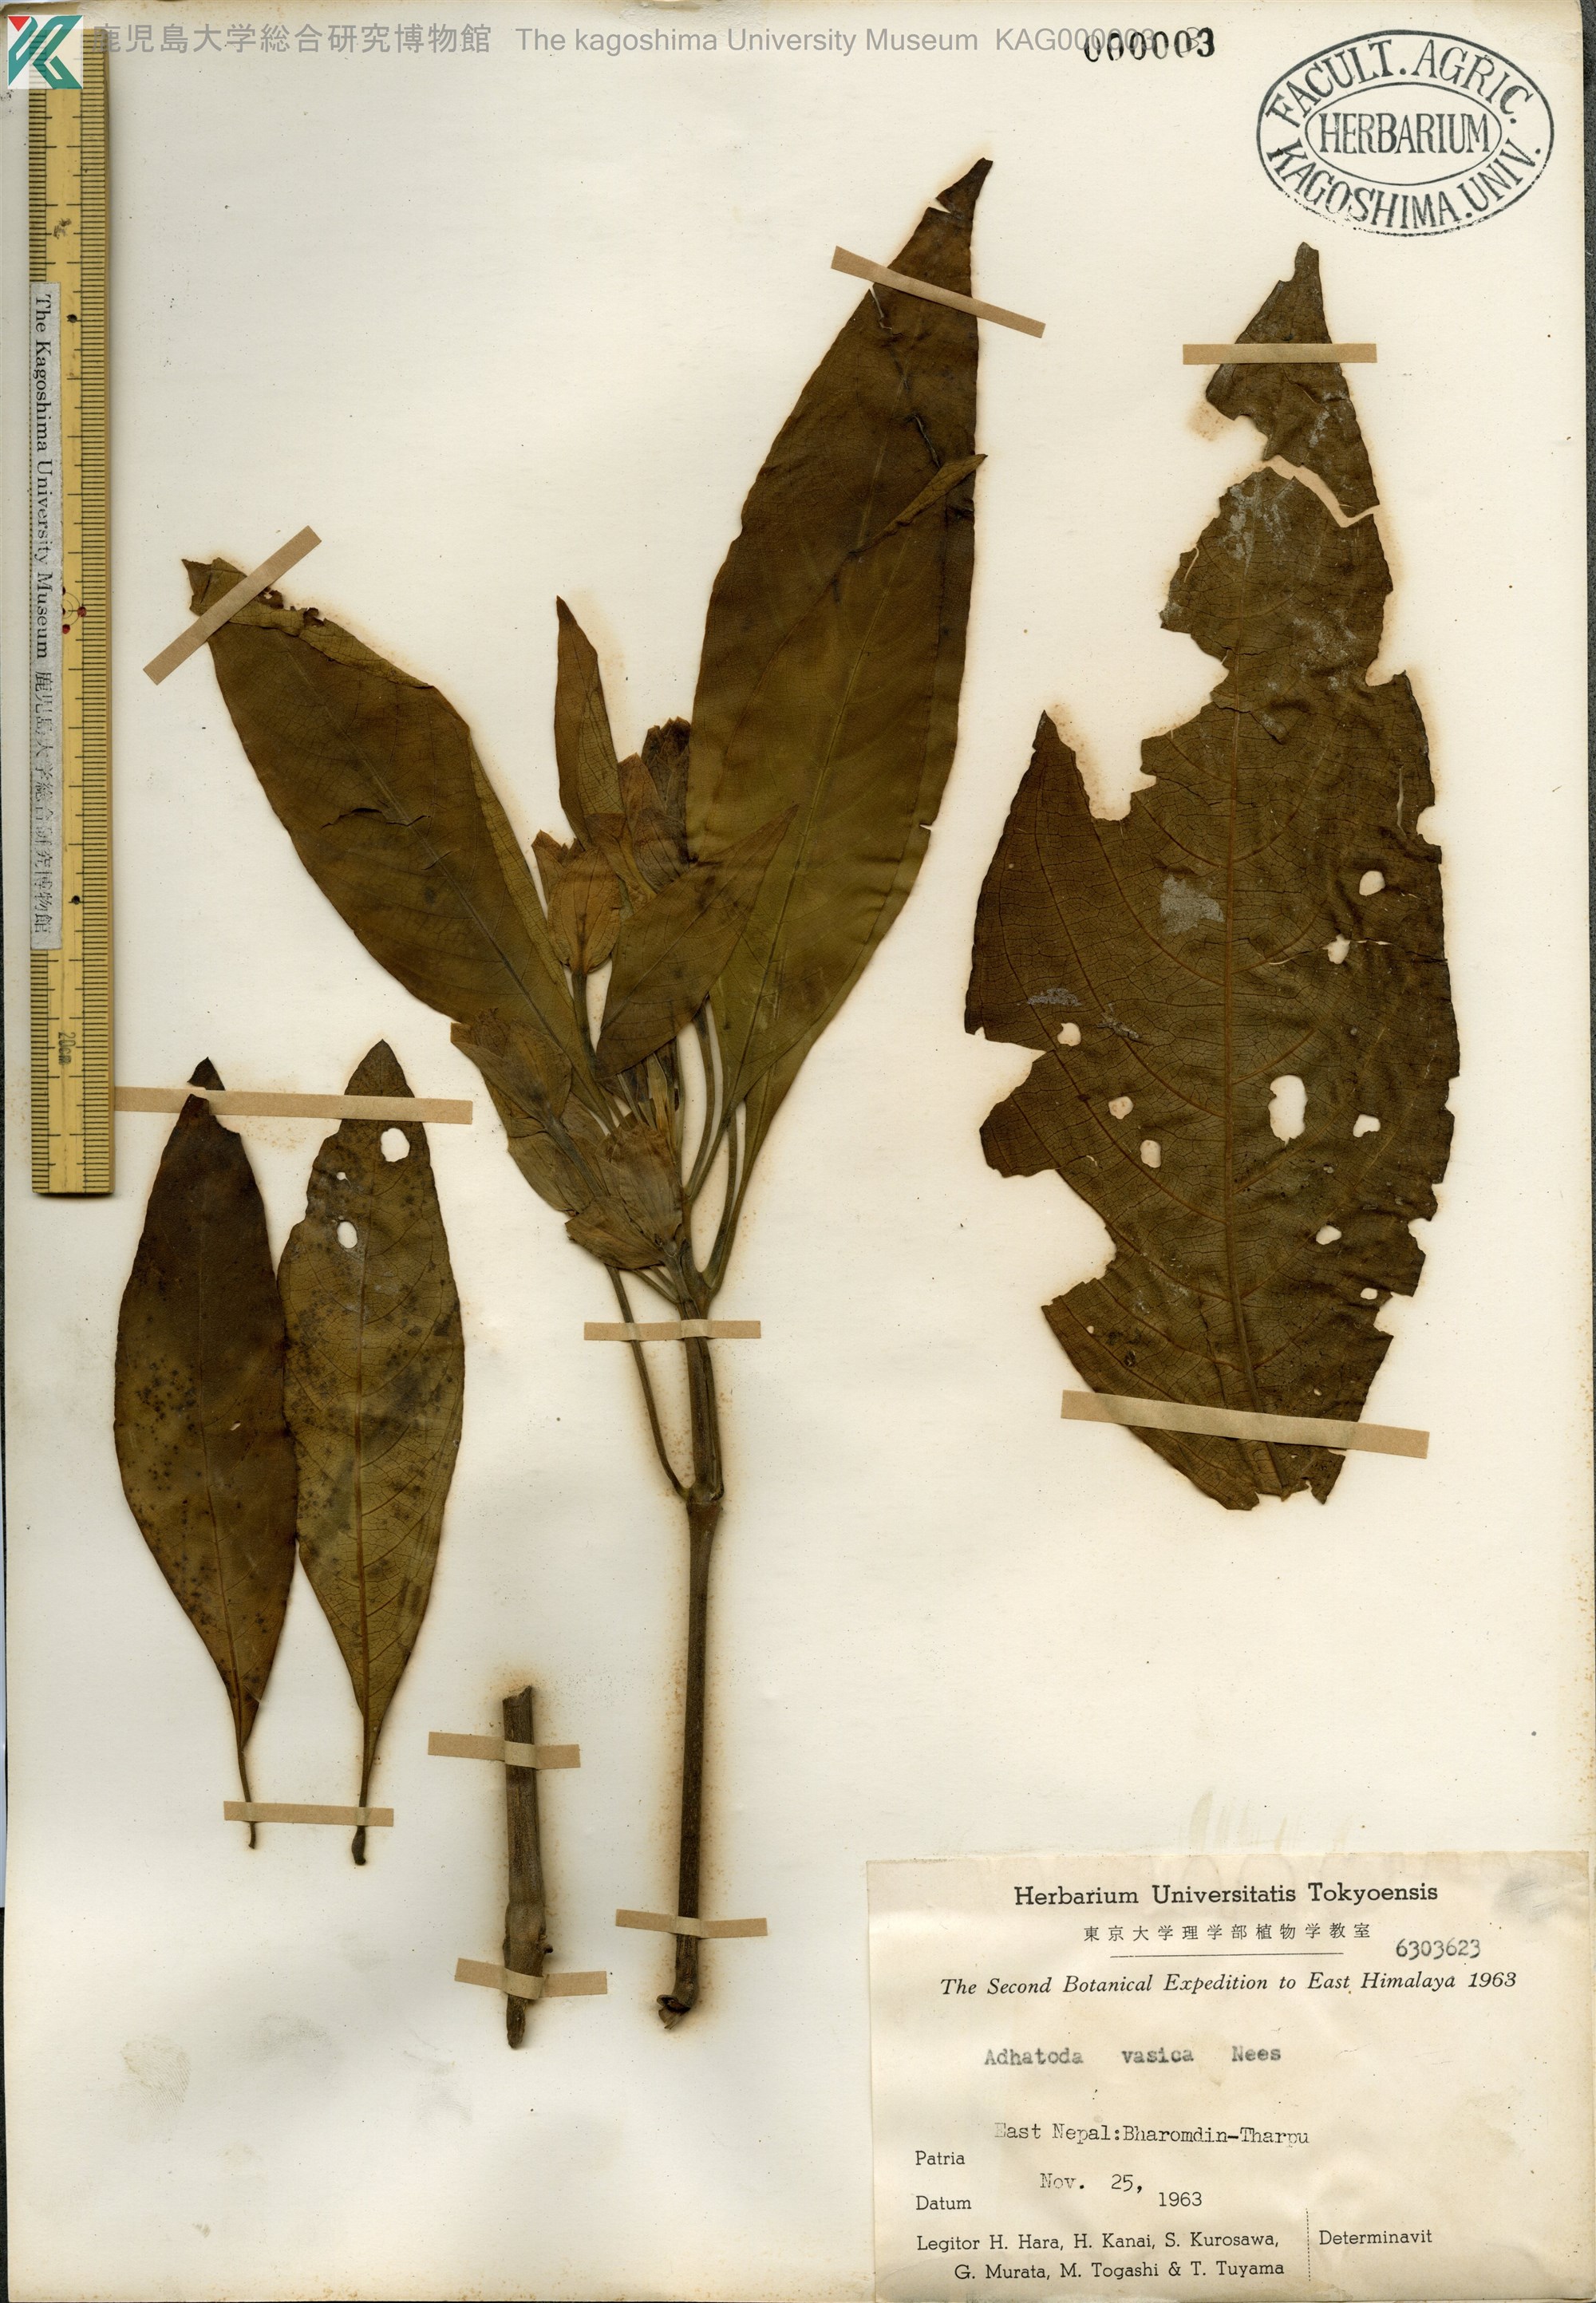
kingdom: Plantae
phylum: Tracheophyta
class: Magnoliopsida
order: Lamiales
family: Acanthaceae
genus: Justicia
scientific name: Justicia adhatoda
